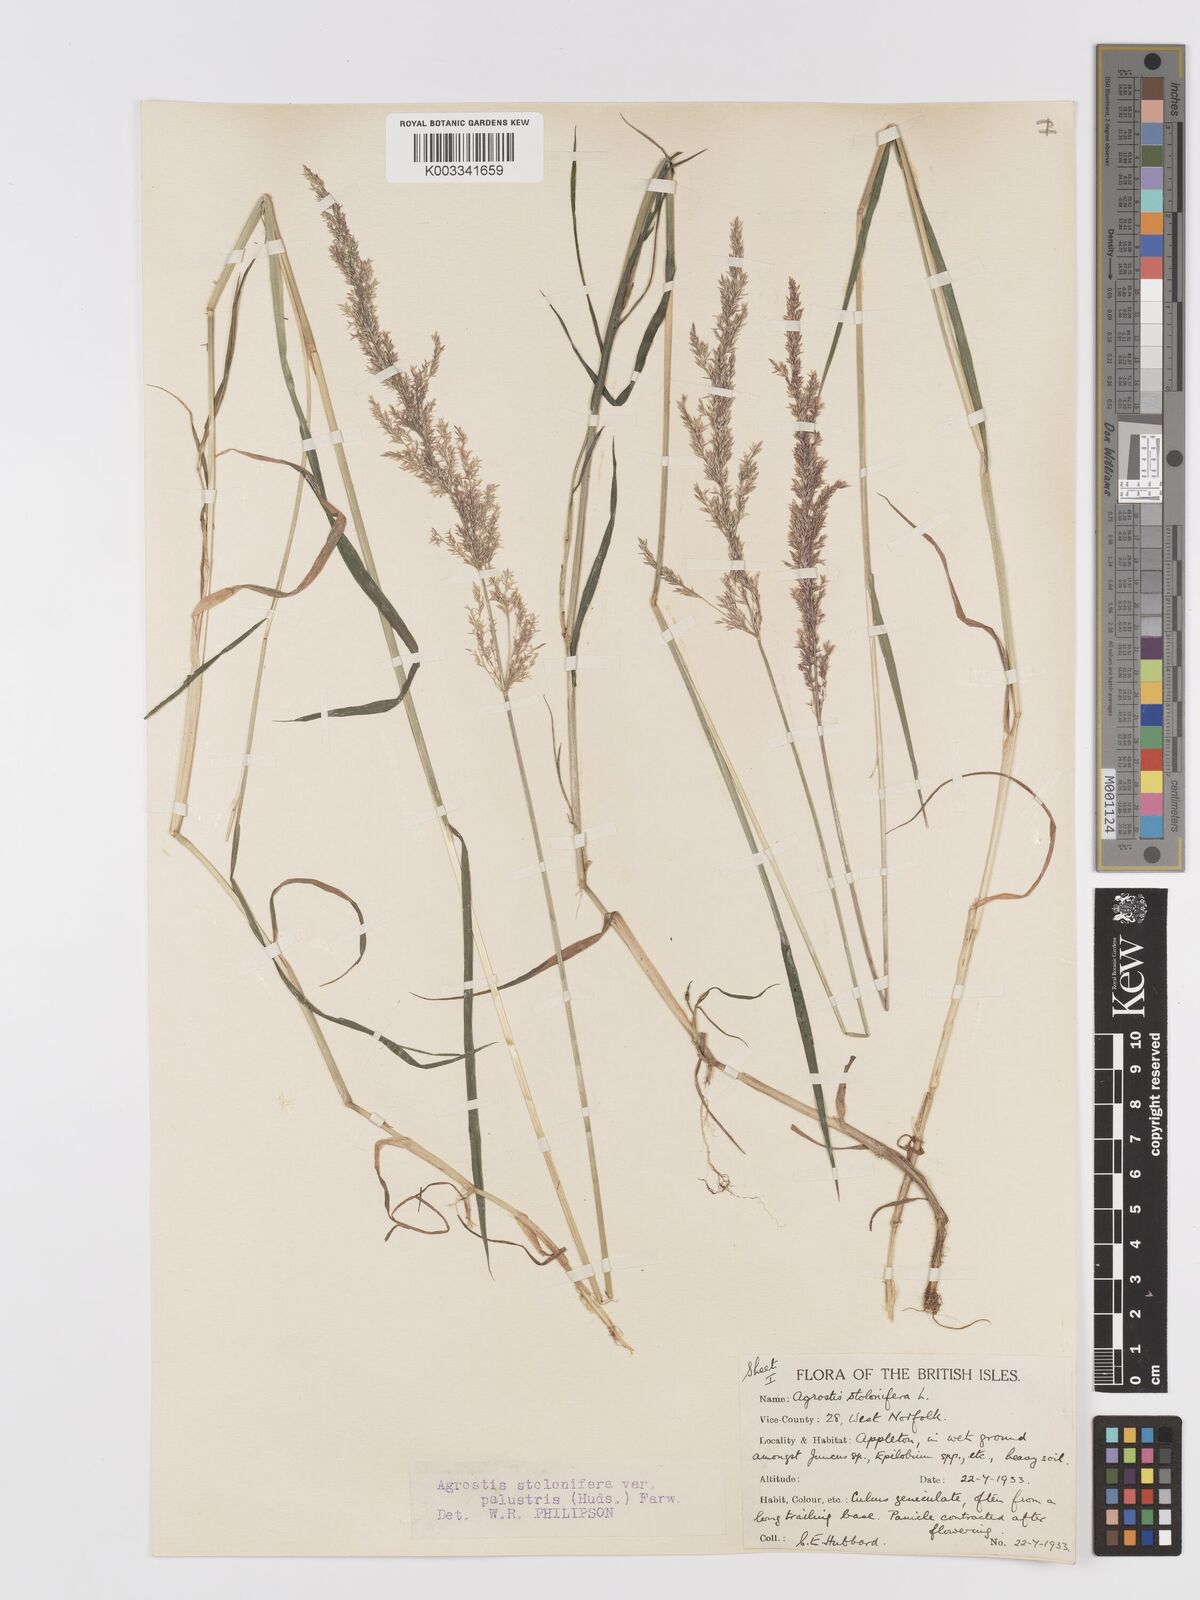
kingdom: Plantae
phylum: Tracheophyta
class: Liliopsida
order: Poales
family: Poaceae
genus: Agrostis
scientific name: Agrostis stolonifera
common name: Creeping bentgrass
